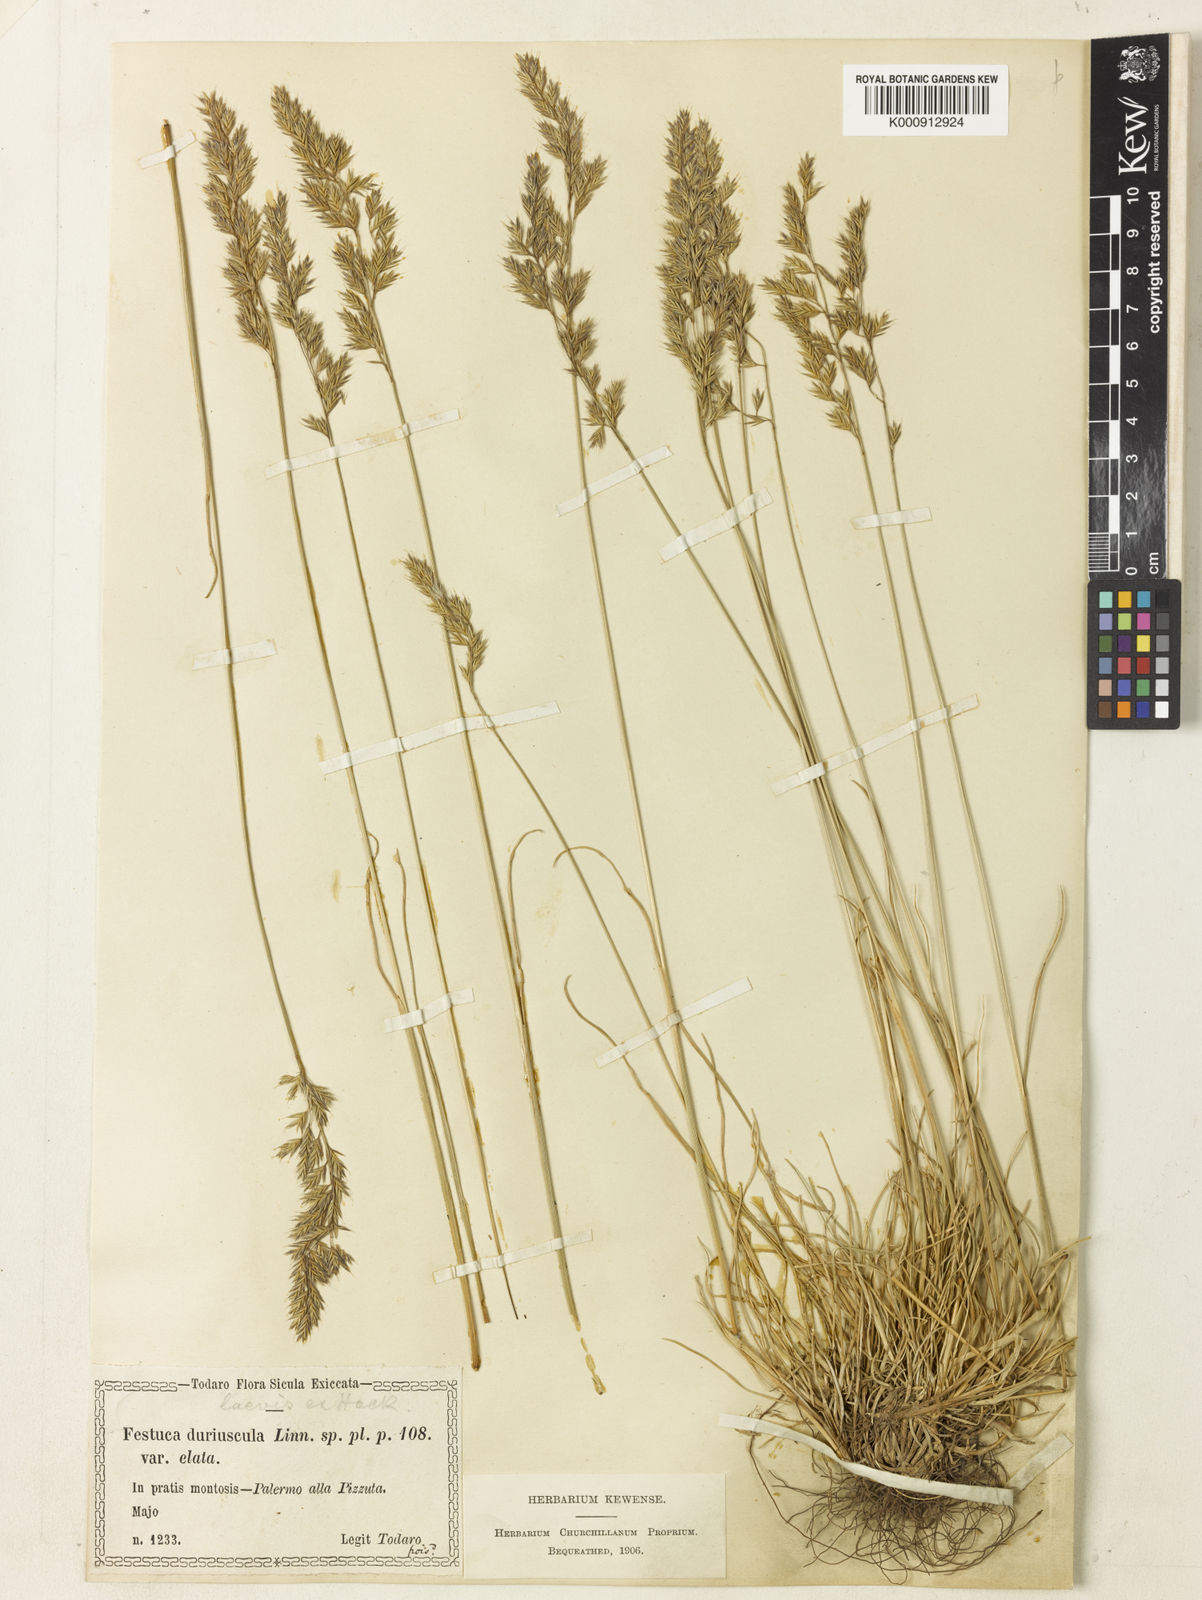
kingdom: Plantae
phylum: Tracheophyta
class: Liliopsida
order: Poales
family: Poaceae
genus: Festuca
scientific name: Festuca circummediterranea
